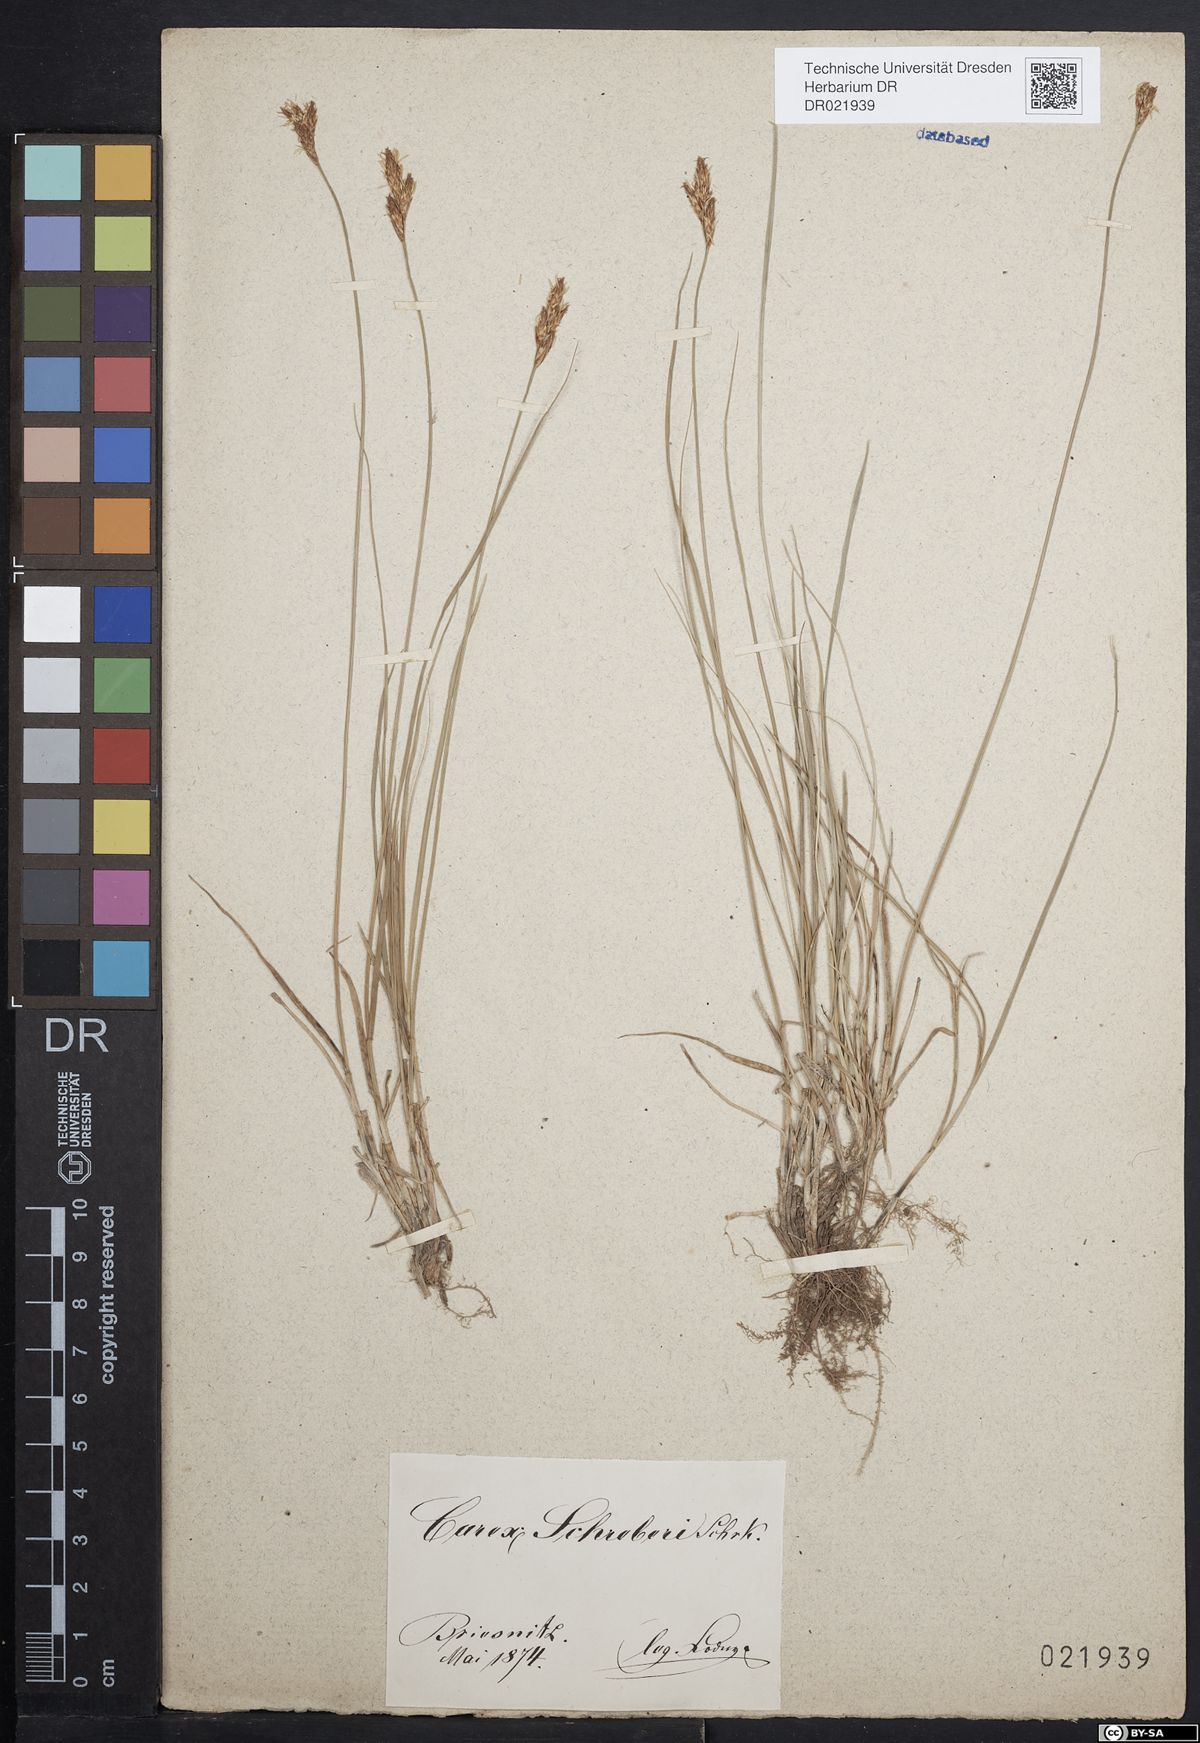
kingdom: Plantae
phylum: Tracheophyta
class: Liliopsida
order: Poales
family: Cyperaceae
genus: Carex
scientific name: Carex praecox
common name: Early sedge
